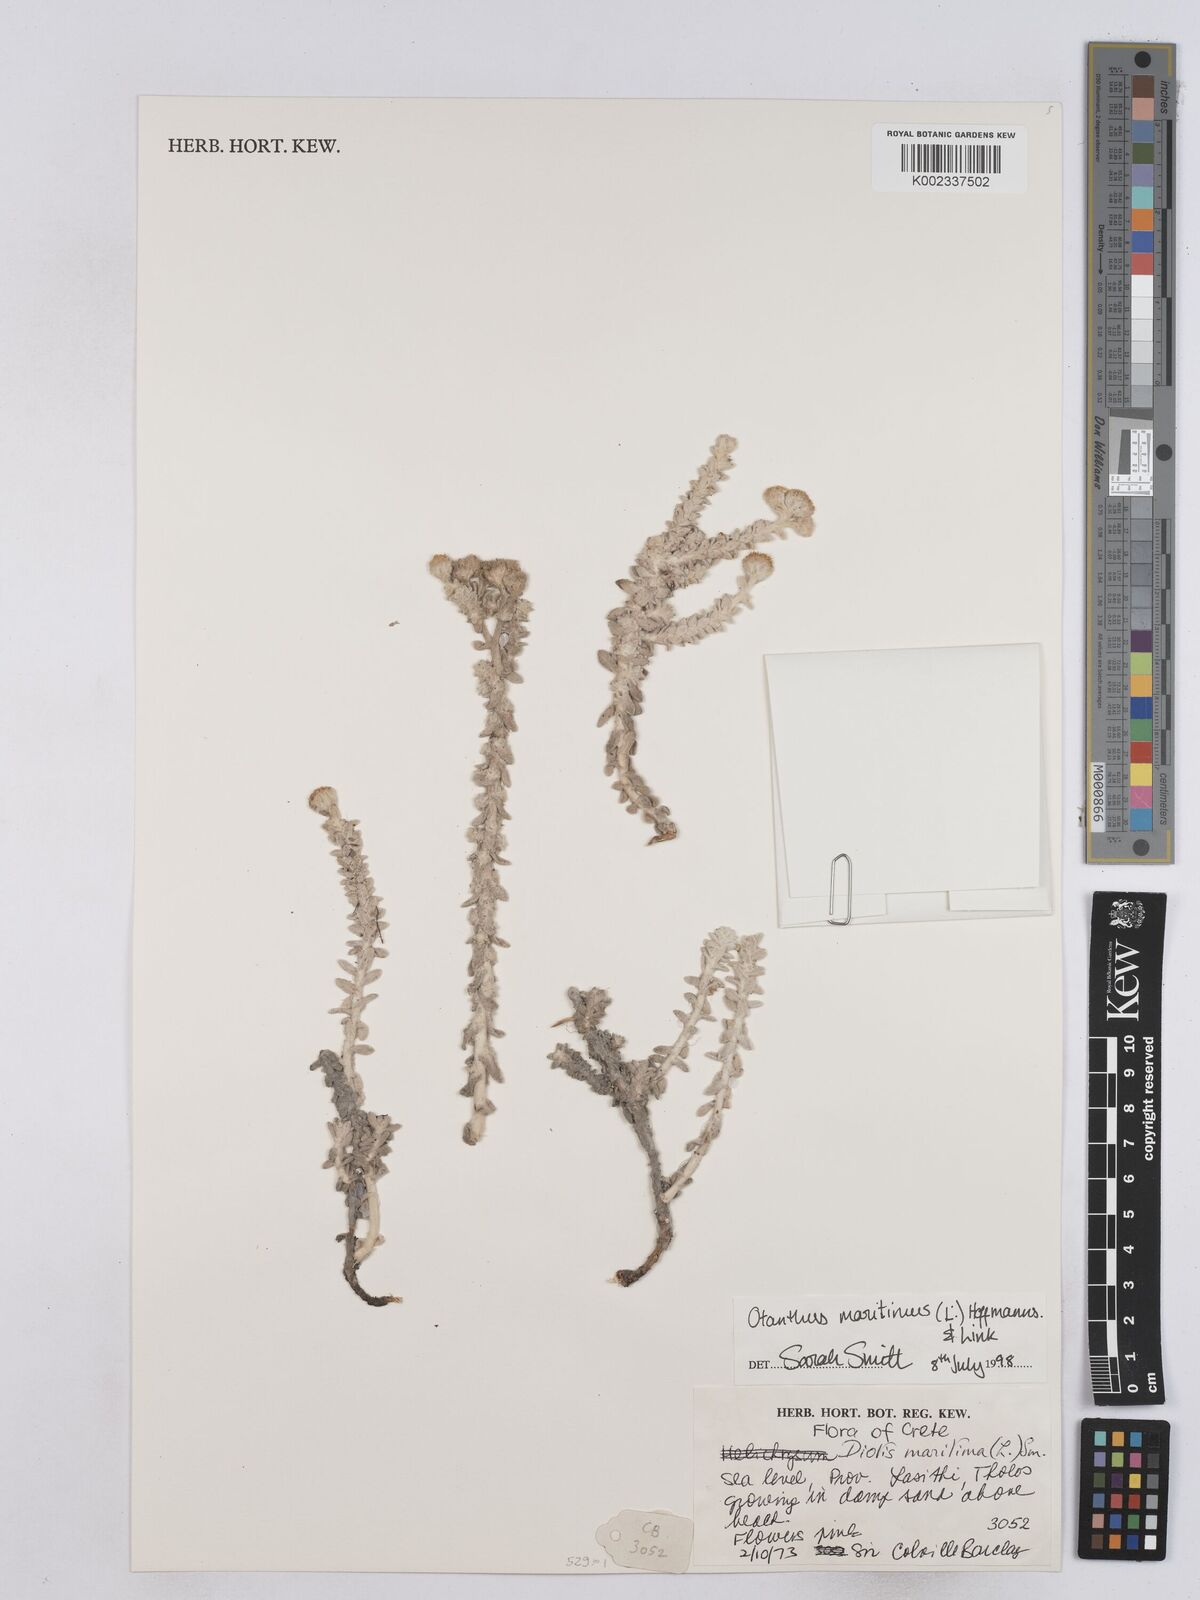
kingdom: Plantae
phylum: Tracheophyta
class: Magnoliopsida
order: Asterales
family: Asteraceae
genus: Achillea
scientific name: Achillea maritima
